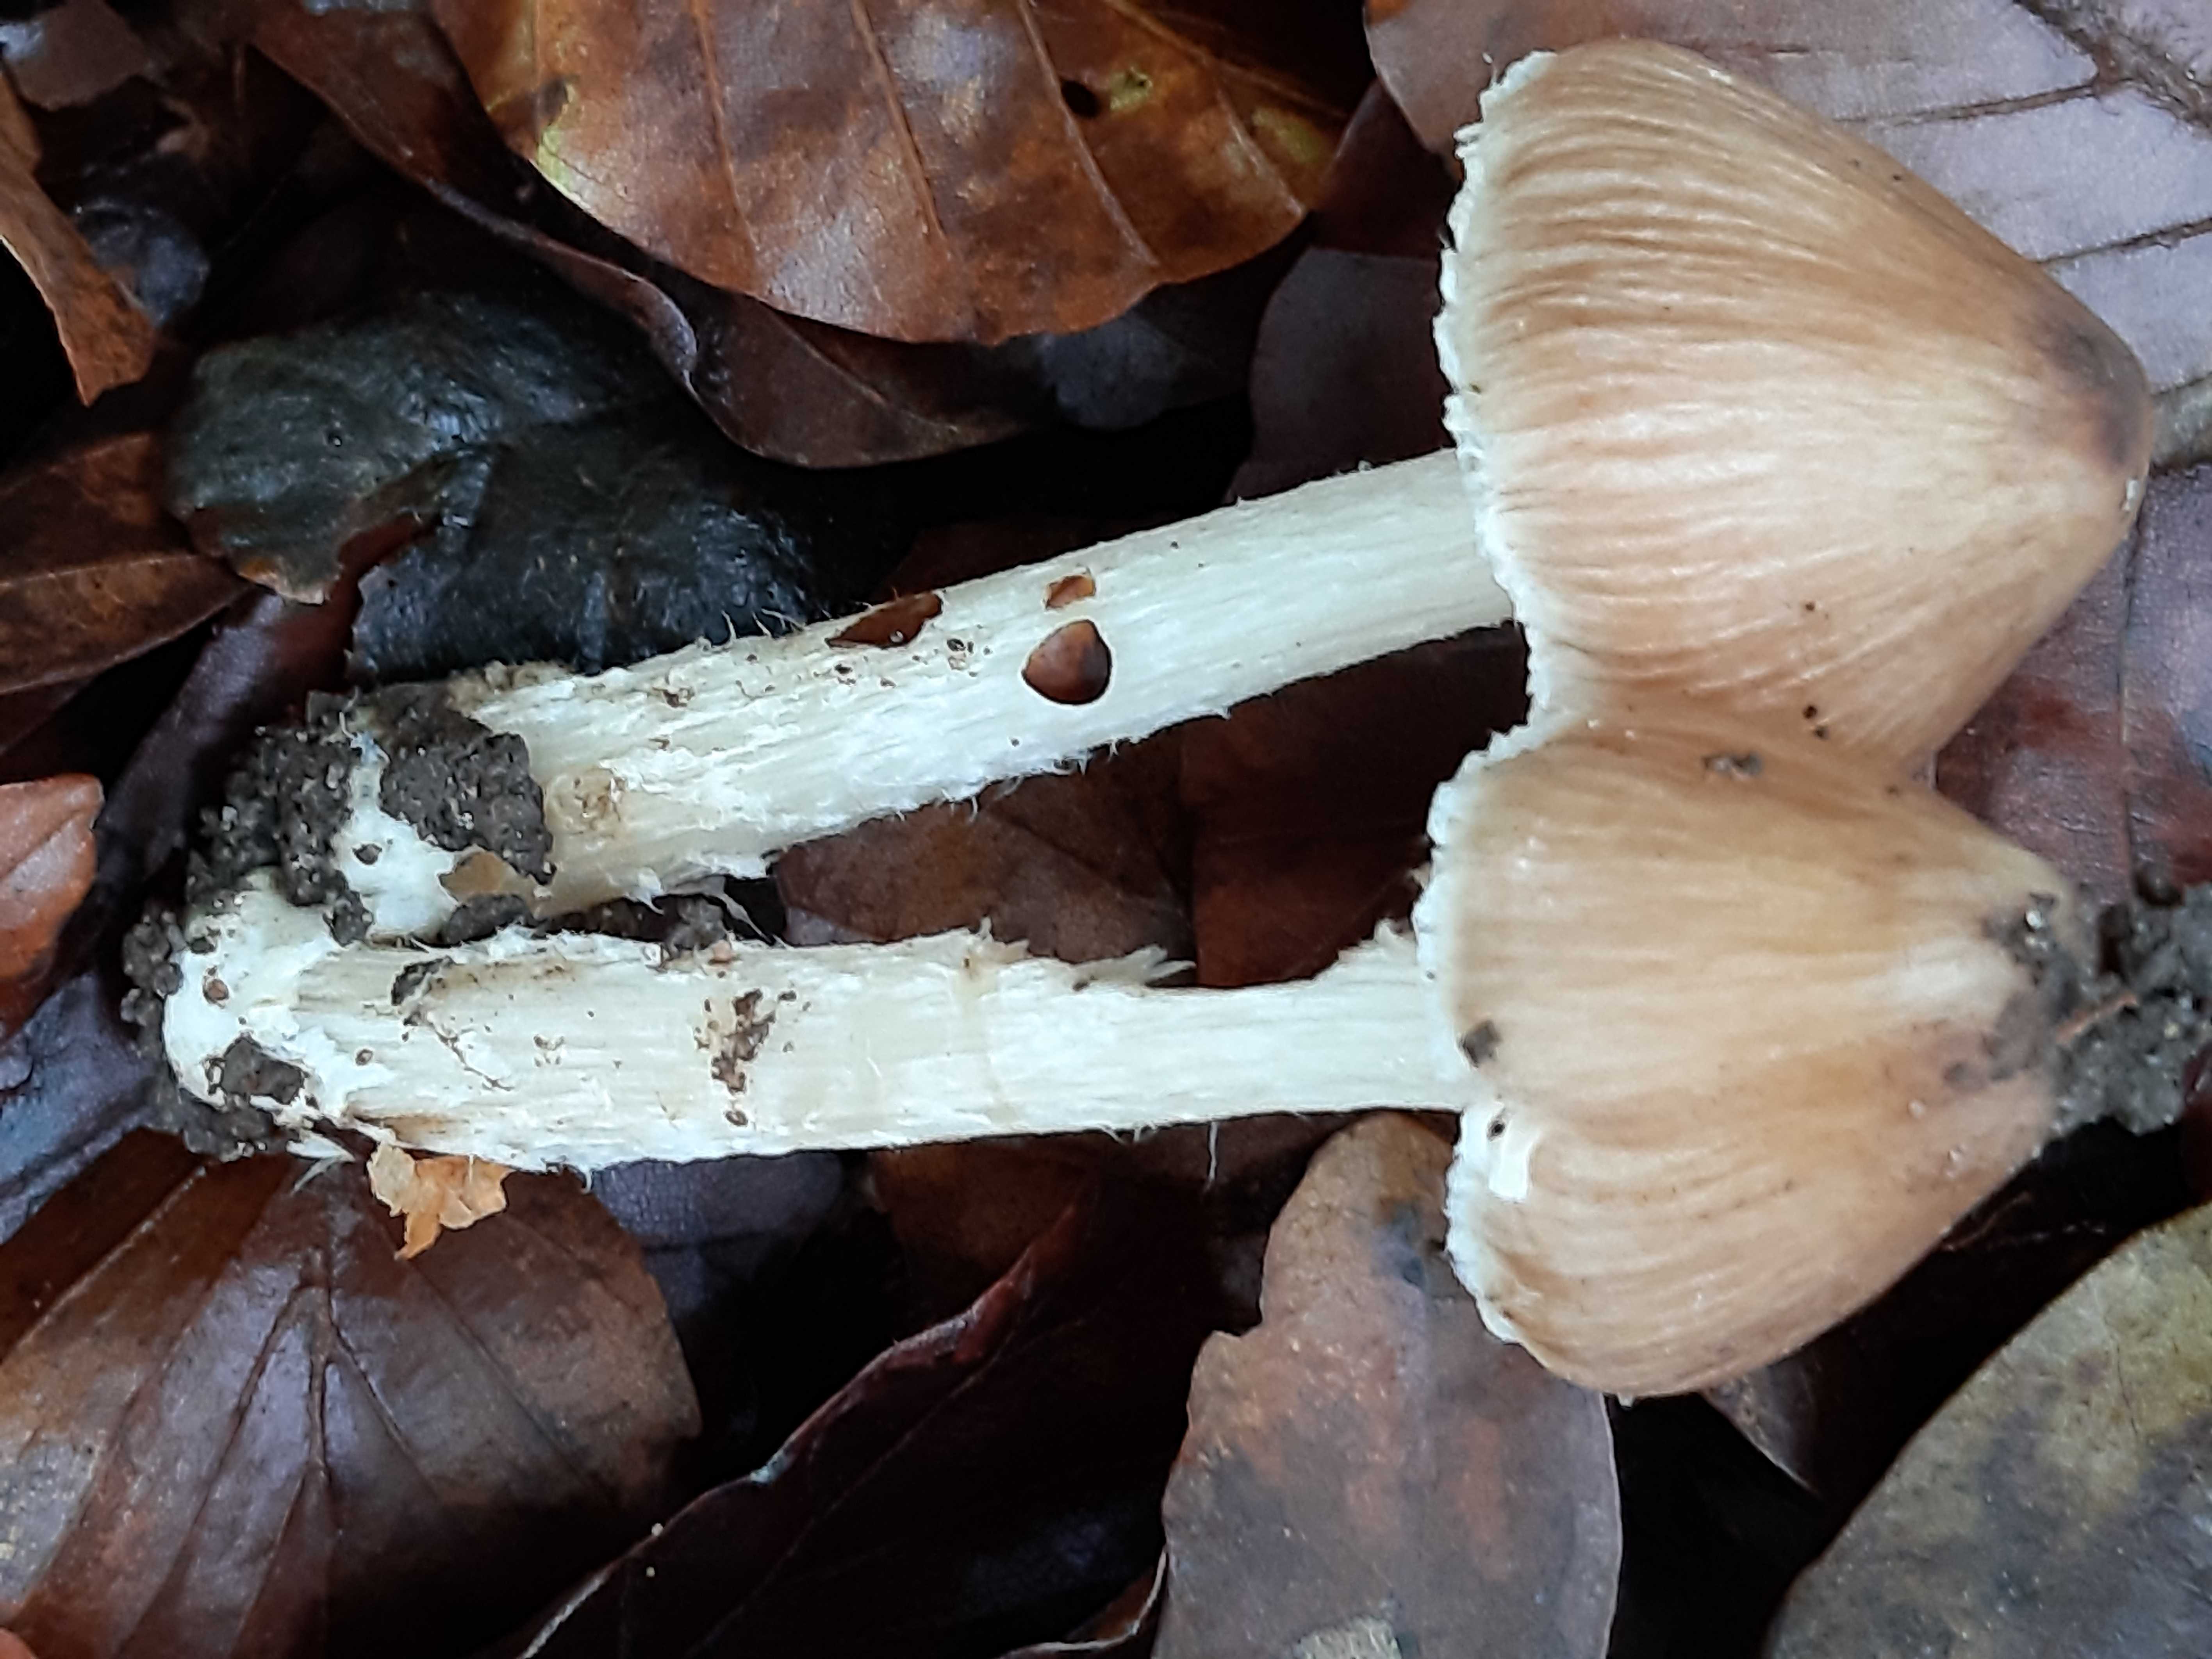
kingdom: Fungi
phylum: Basidiomycota
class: Agaricomycetes
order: Agaricales
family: Inocybaceae
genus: Inocybe
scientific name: Inocybe
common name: trævlhat
